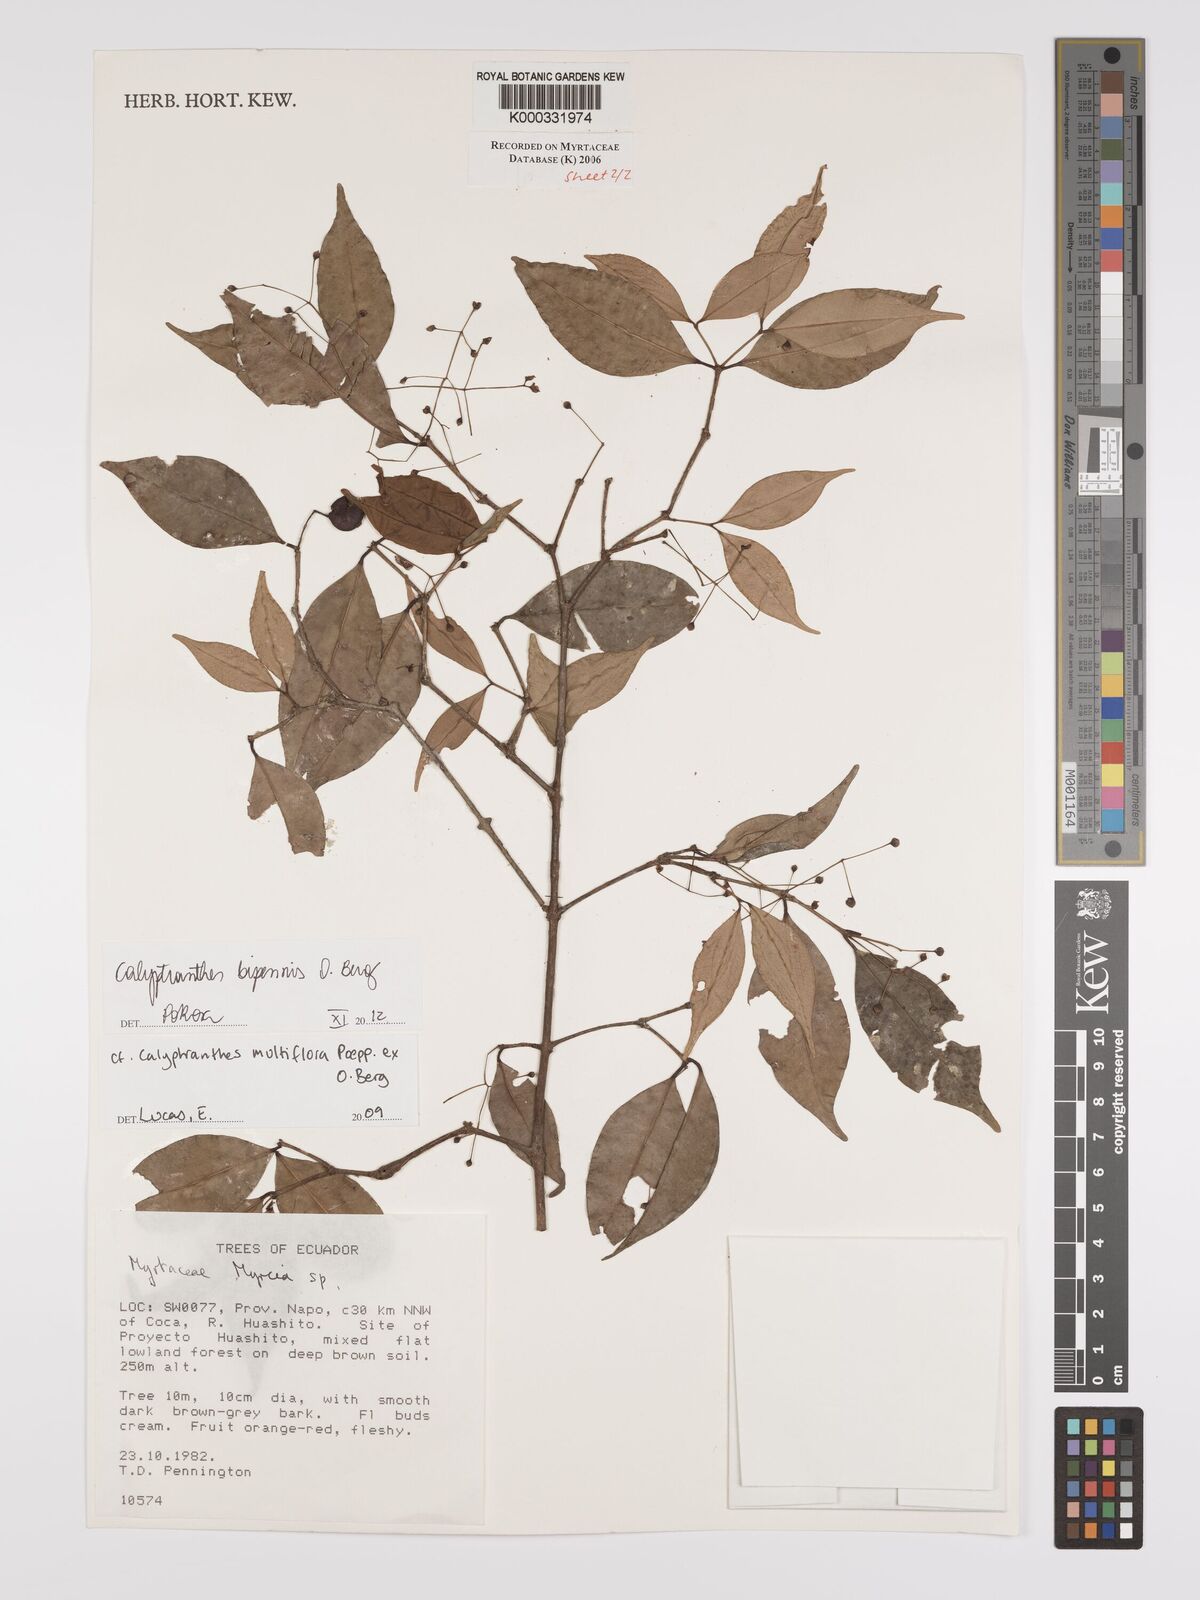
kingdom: Plantae
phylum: Tracheophyta
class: Magnoliopsida
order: Myrtales
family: Myrtaceae
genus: Calyptranthes
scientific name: Calyptranthes
